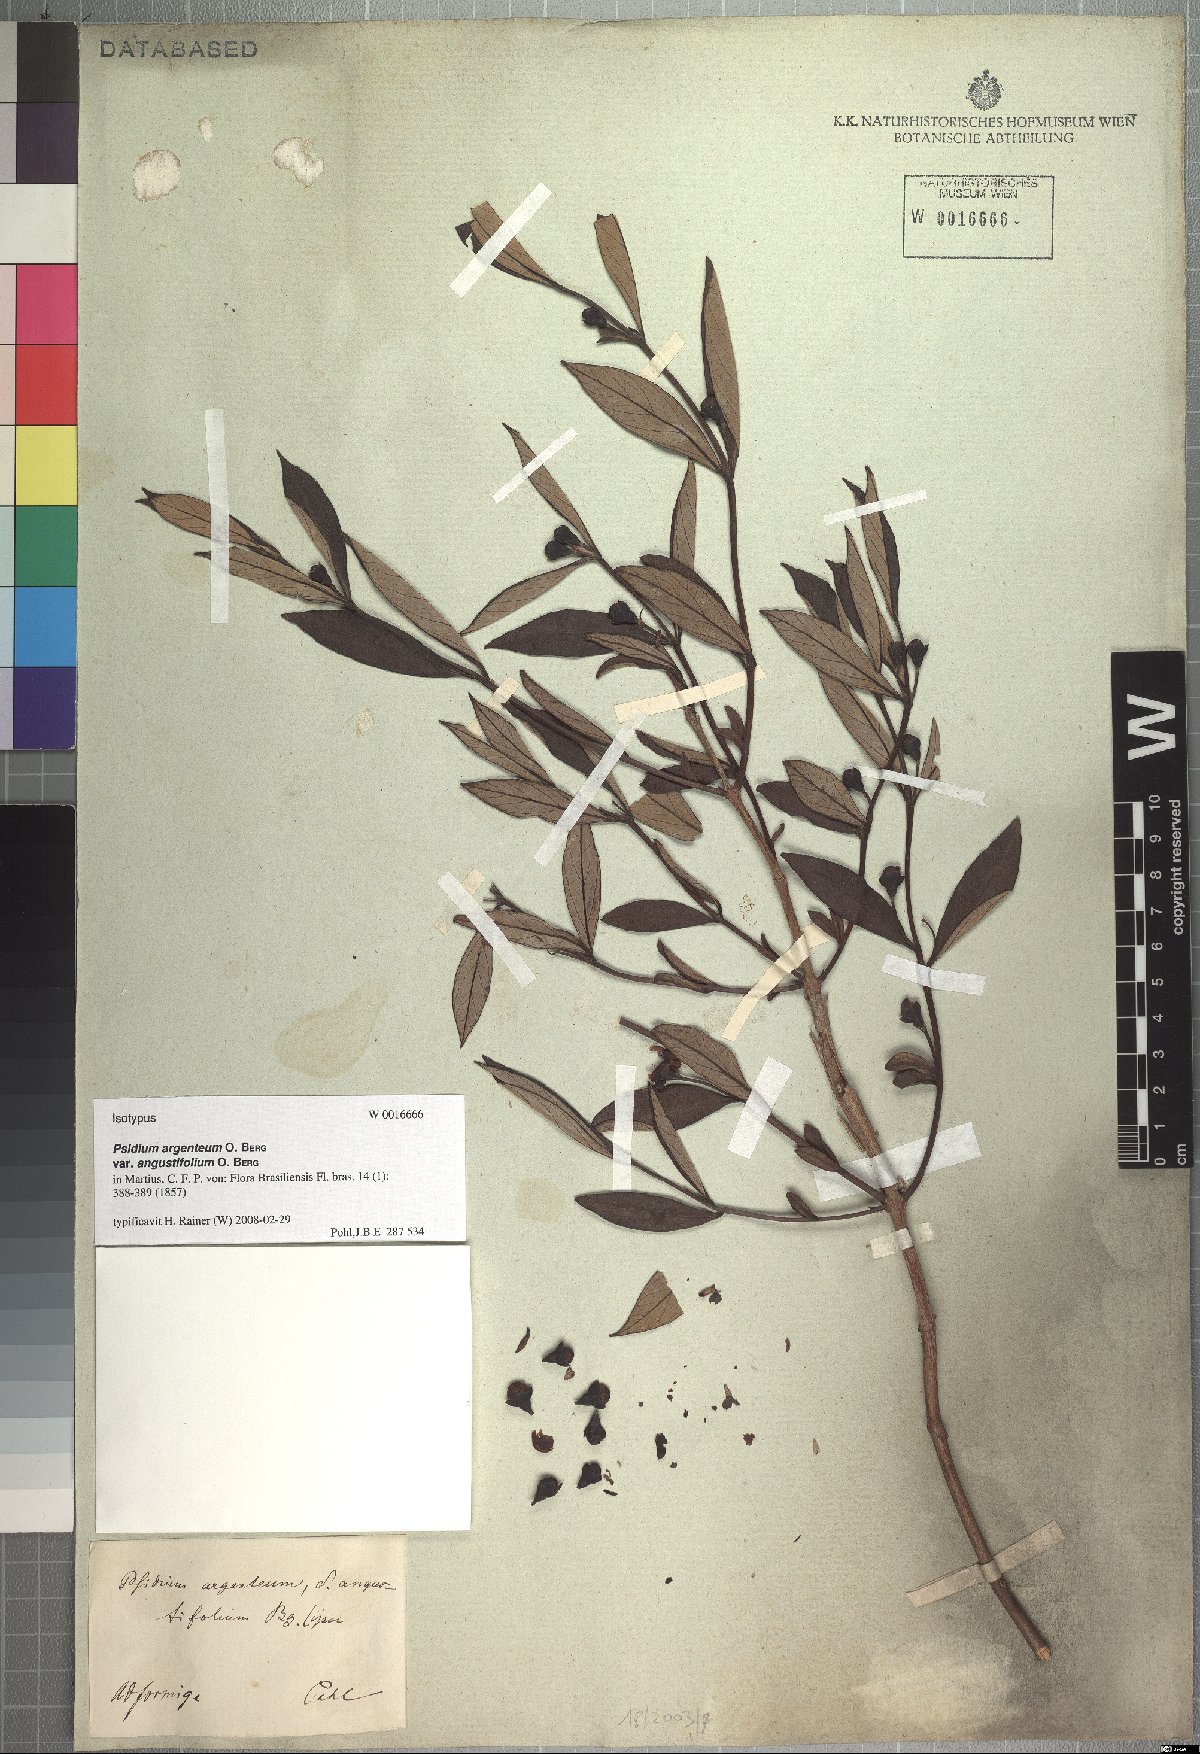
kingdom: Plantae
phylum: Tracheophyta
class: Magnoliopsida
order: Myrtales
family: Myrtaceae
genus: Psidium
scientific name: Psidium australe
